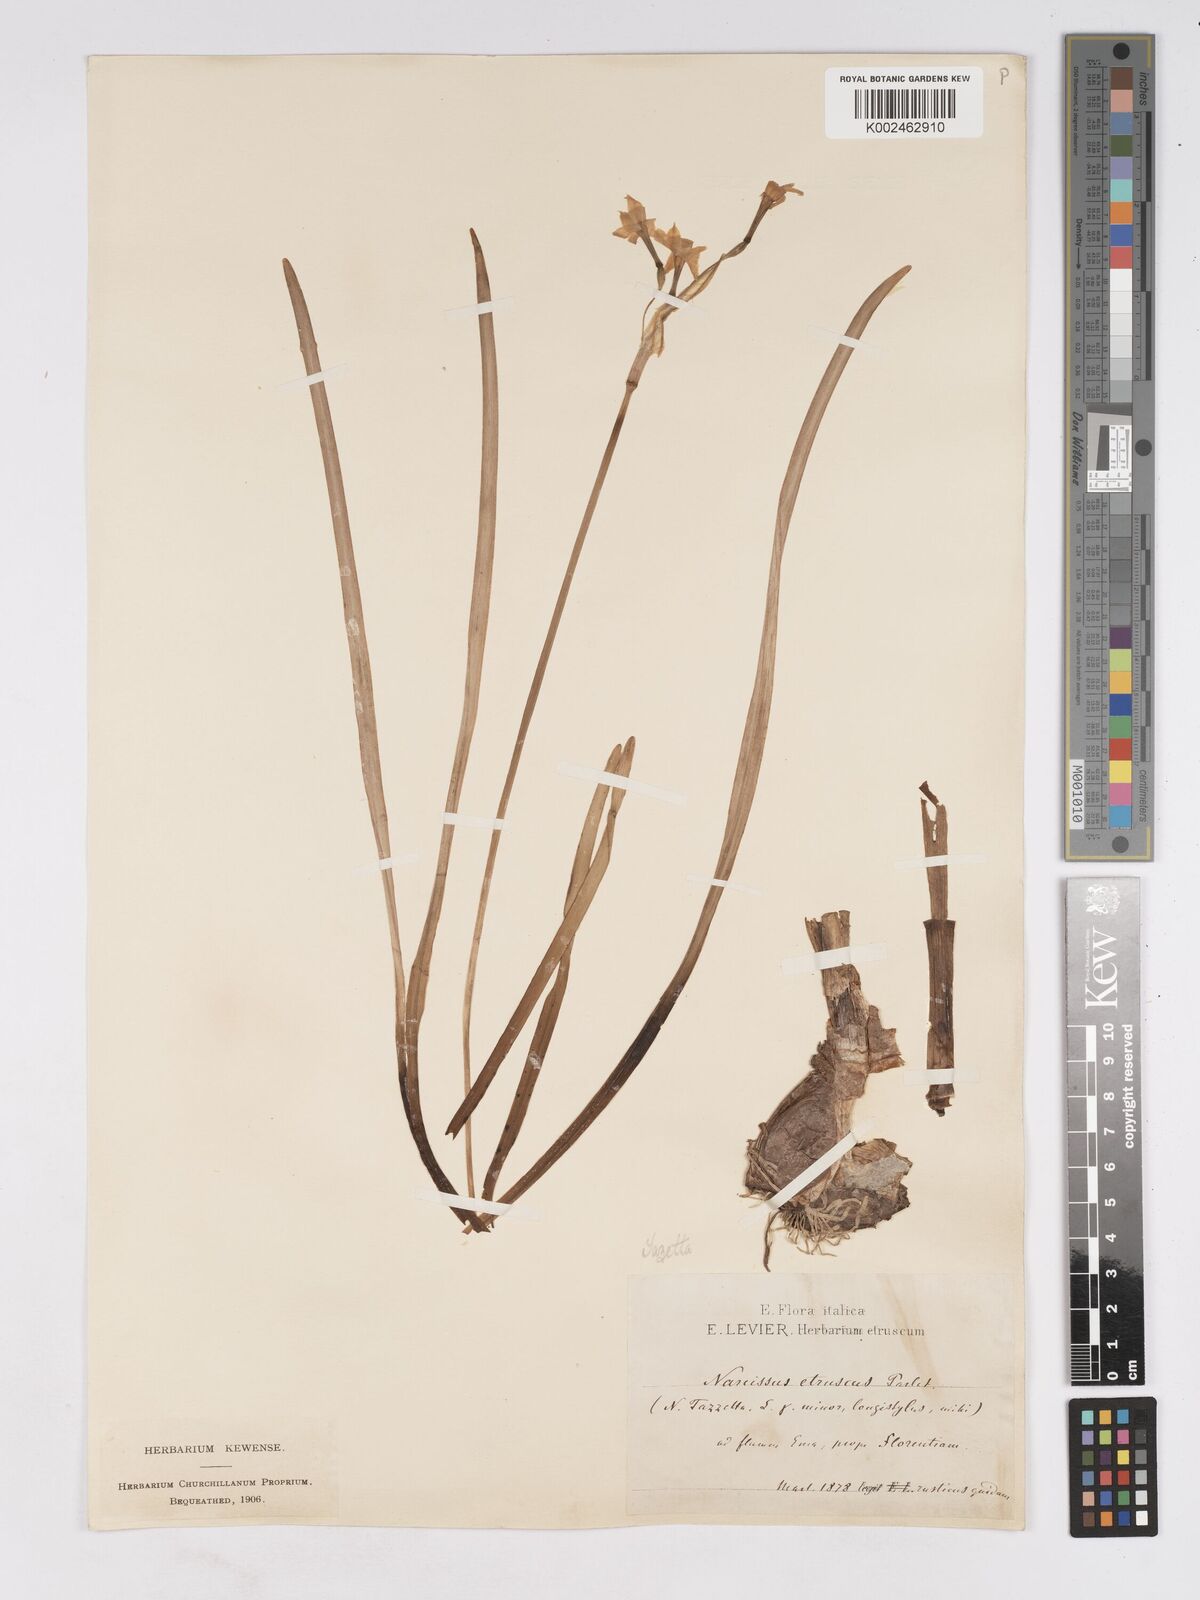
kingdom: Plantae
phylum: Tracheophyta
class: Liliopsida
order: Asparagales
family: Amaryllidaceae
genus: Narcissus
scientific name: Narcissus tazetta
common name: Bunch-flowered daffodil
